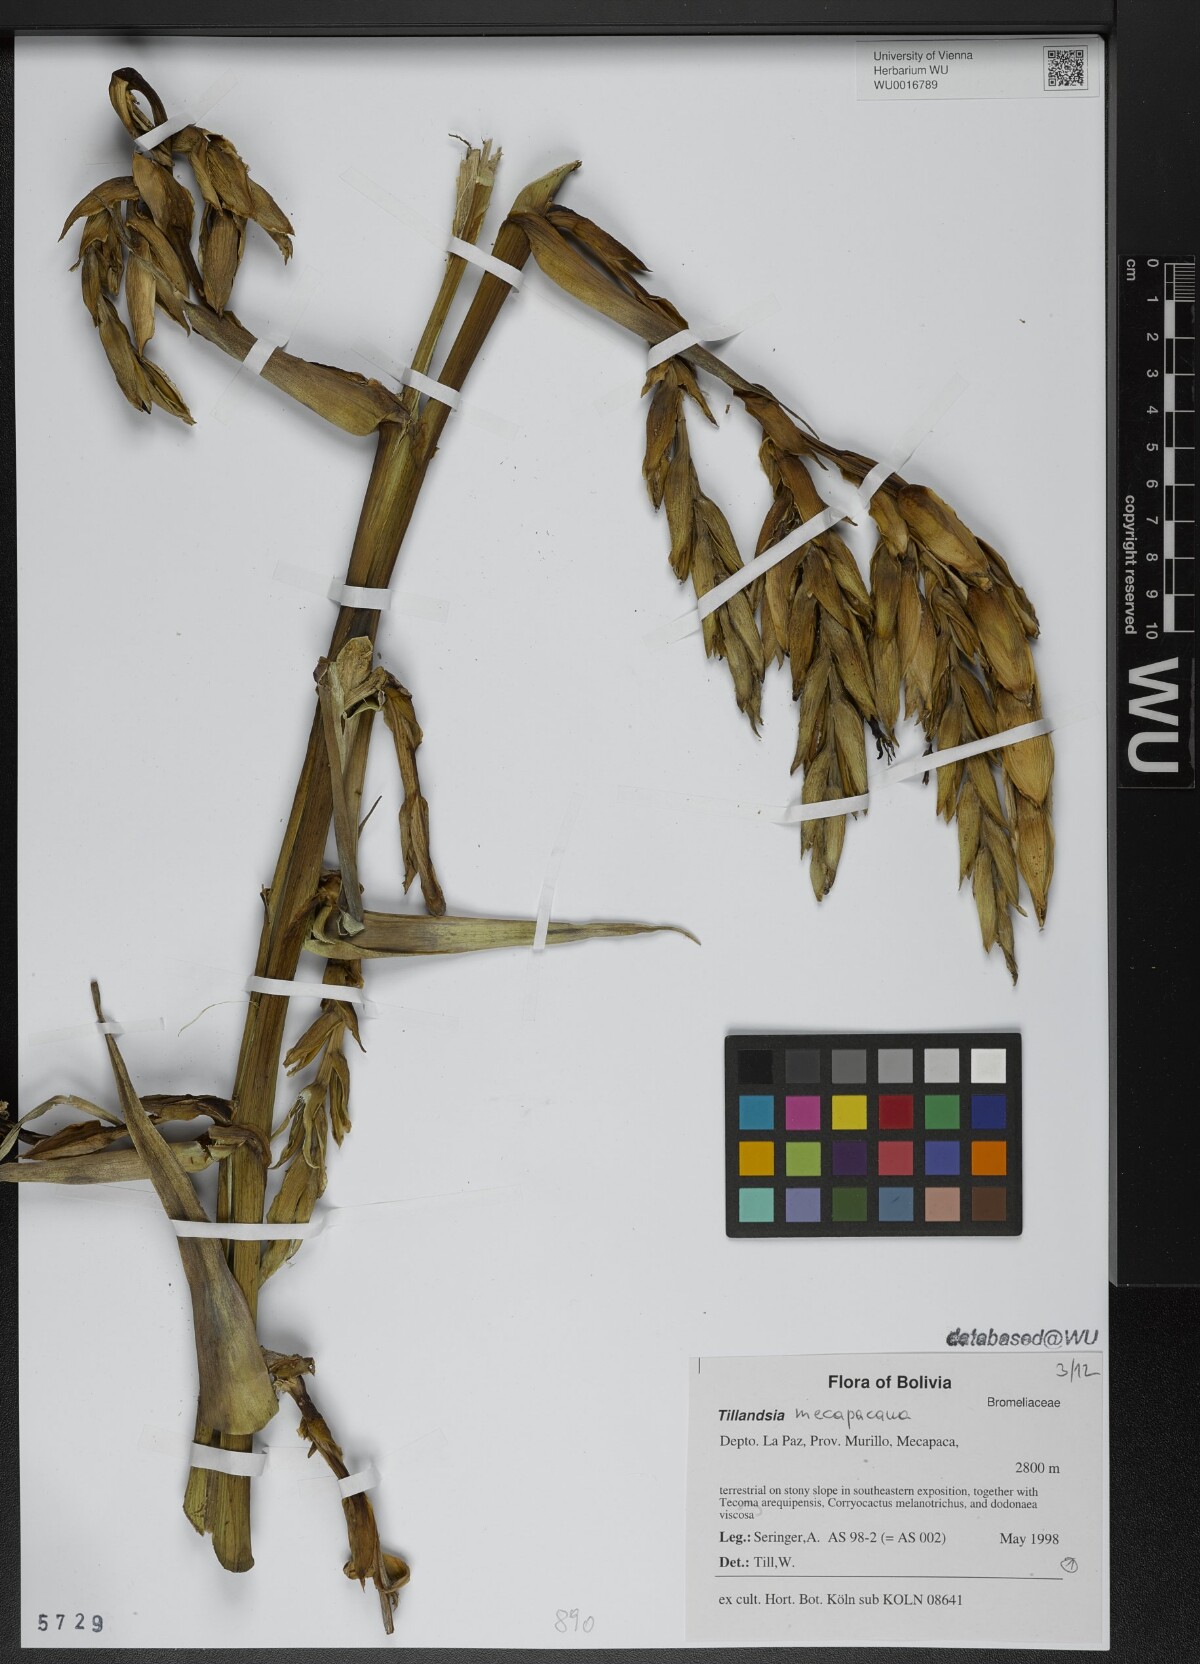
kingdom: Plantae
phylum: Tracheophyta
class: Liliopsida
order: Poales
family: Bromeliaceae
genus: Tillandsia
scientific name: Tillandsia
